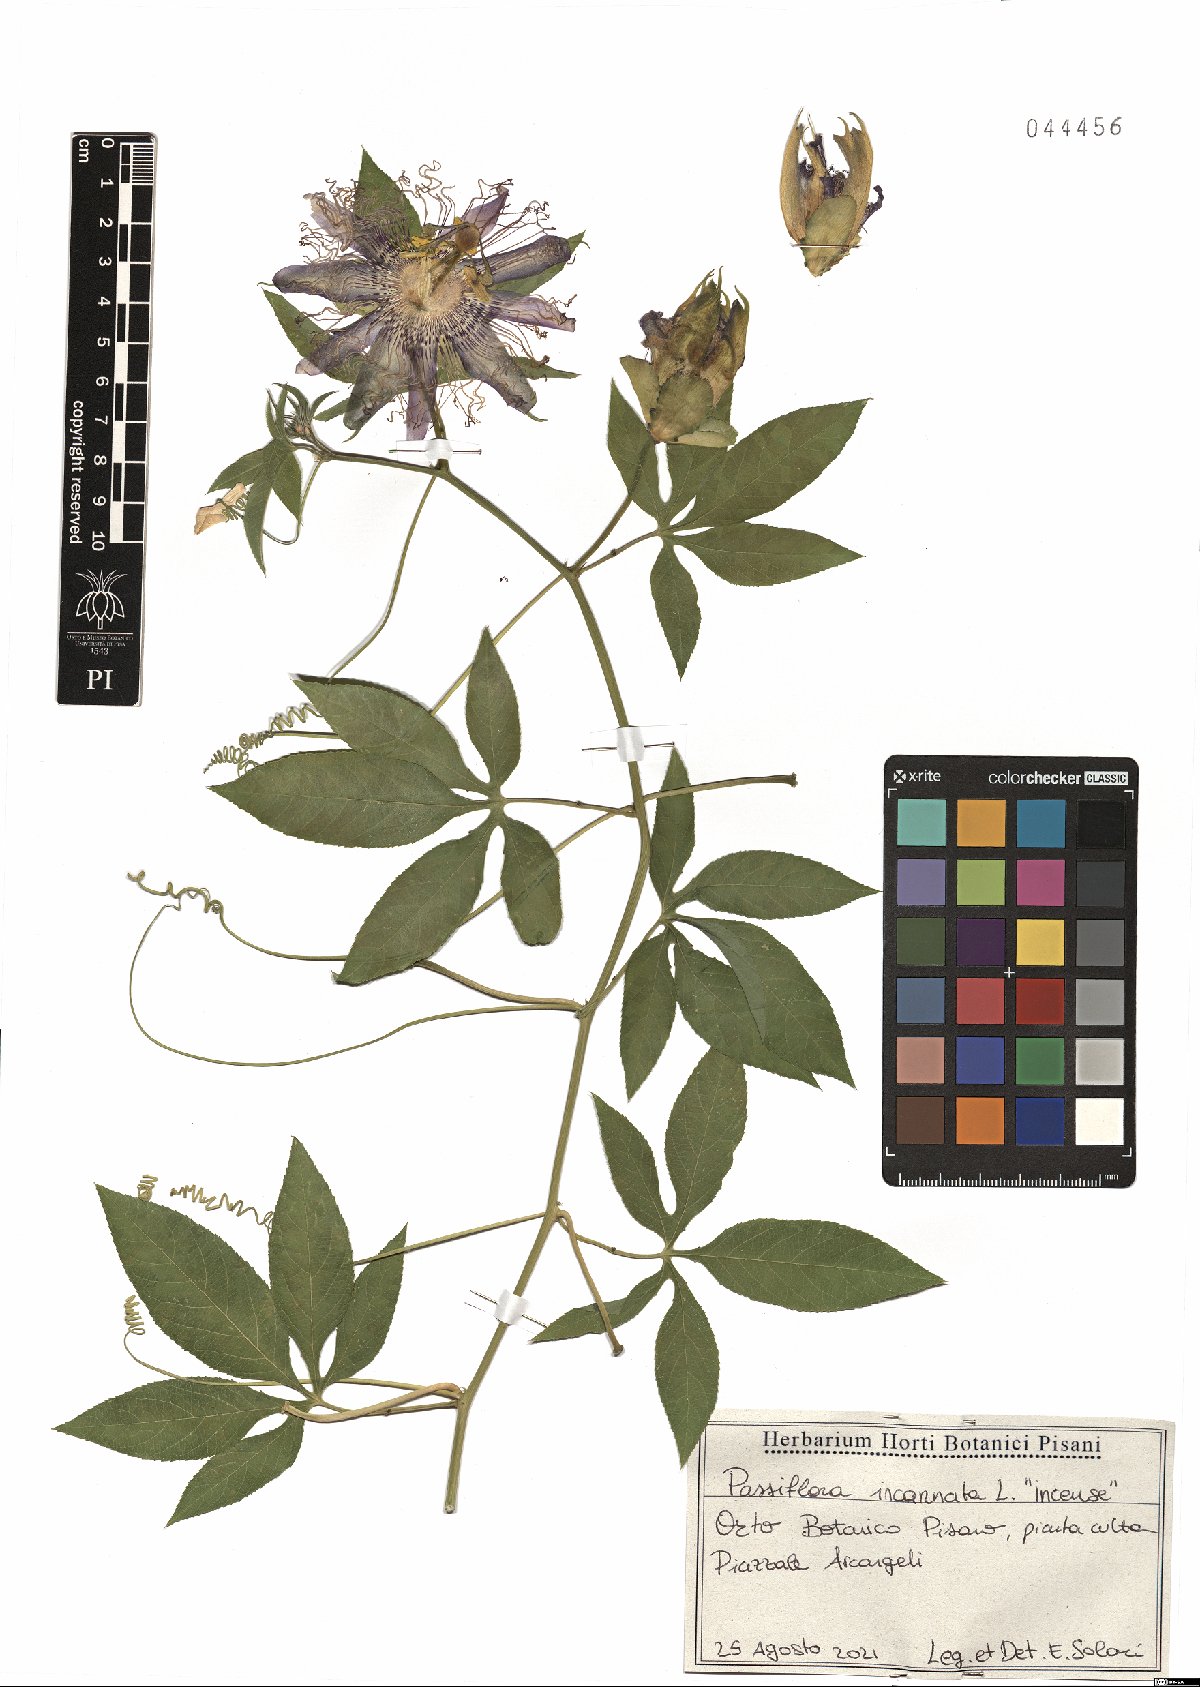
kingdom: Plantae
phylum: Tracheophyta
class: Magnoliopsida
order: Malpighiales
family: Passifloraceae
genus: Passiflora
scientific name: Passiflora incarnata
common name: Apricot-vine
